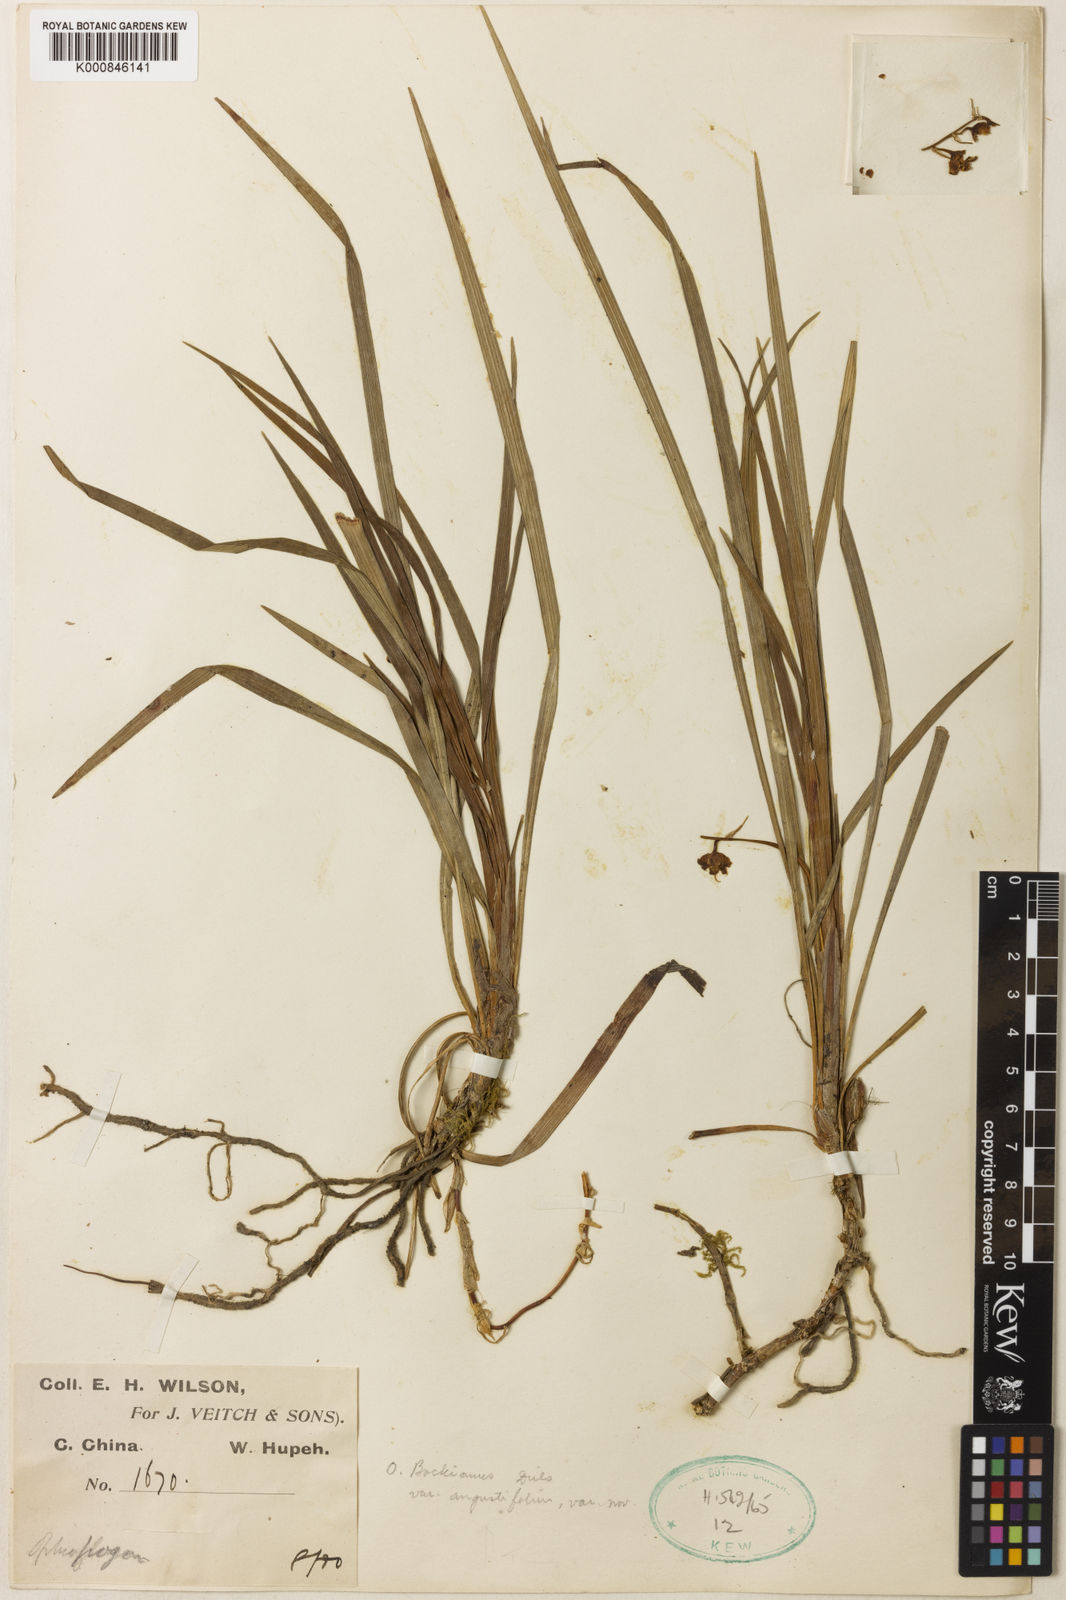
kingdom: Plantae
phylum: Tracheophyta
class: Liliopsida
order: Asparagales
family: Asparagaceae
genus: Ophiopogon
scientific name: Ophiopogon angustifoliatus
